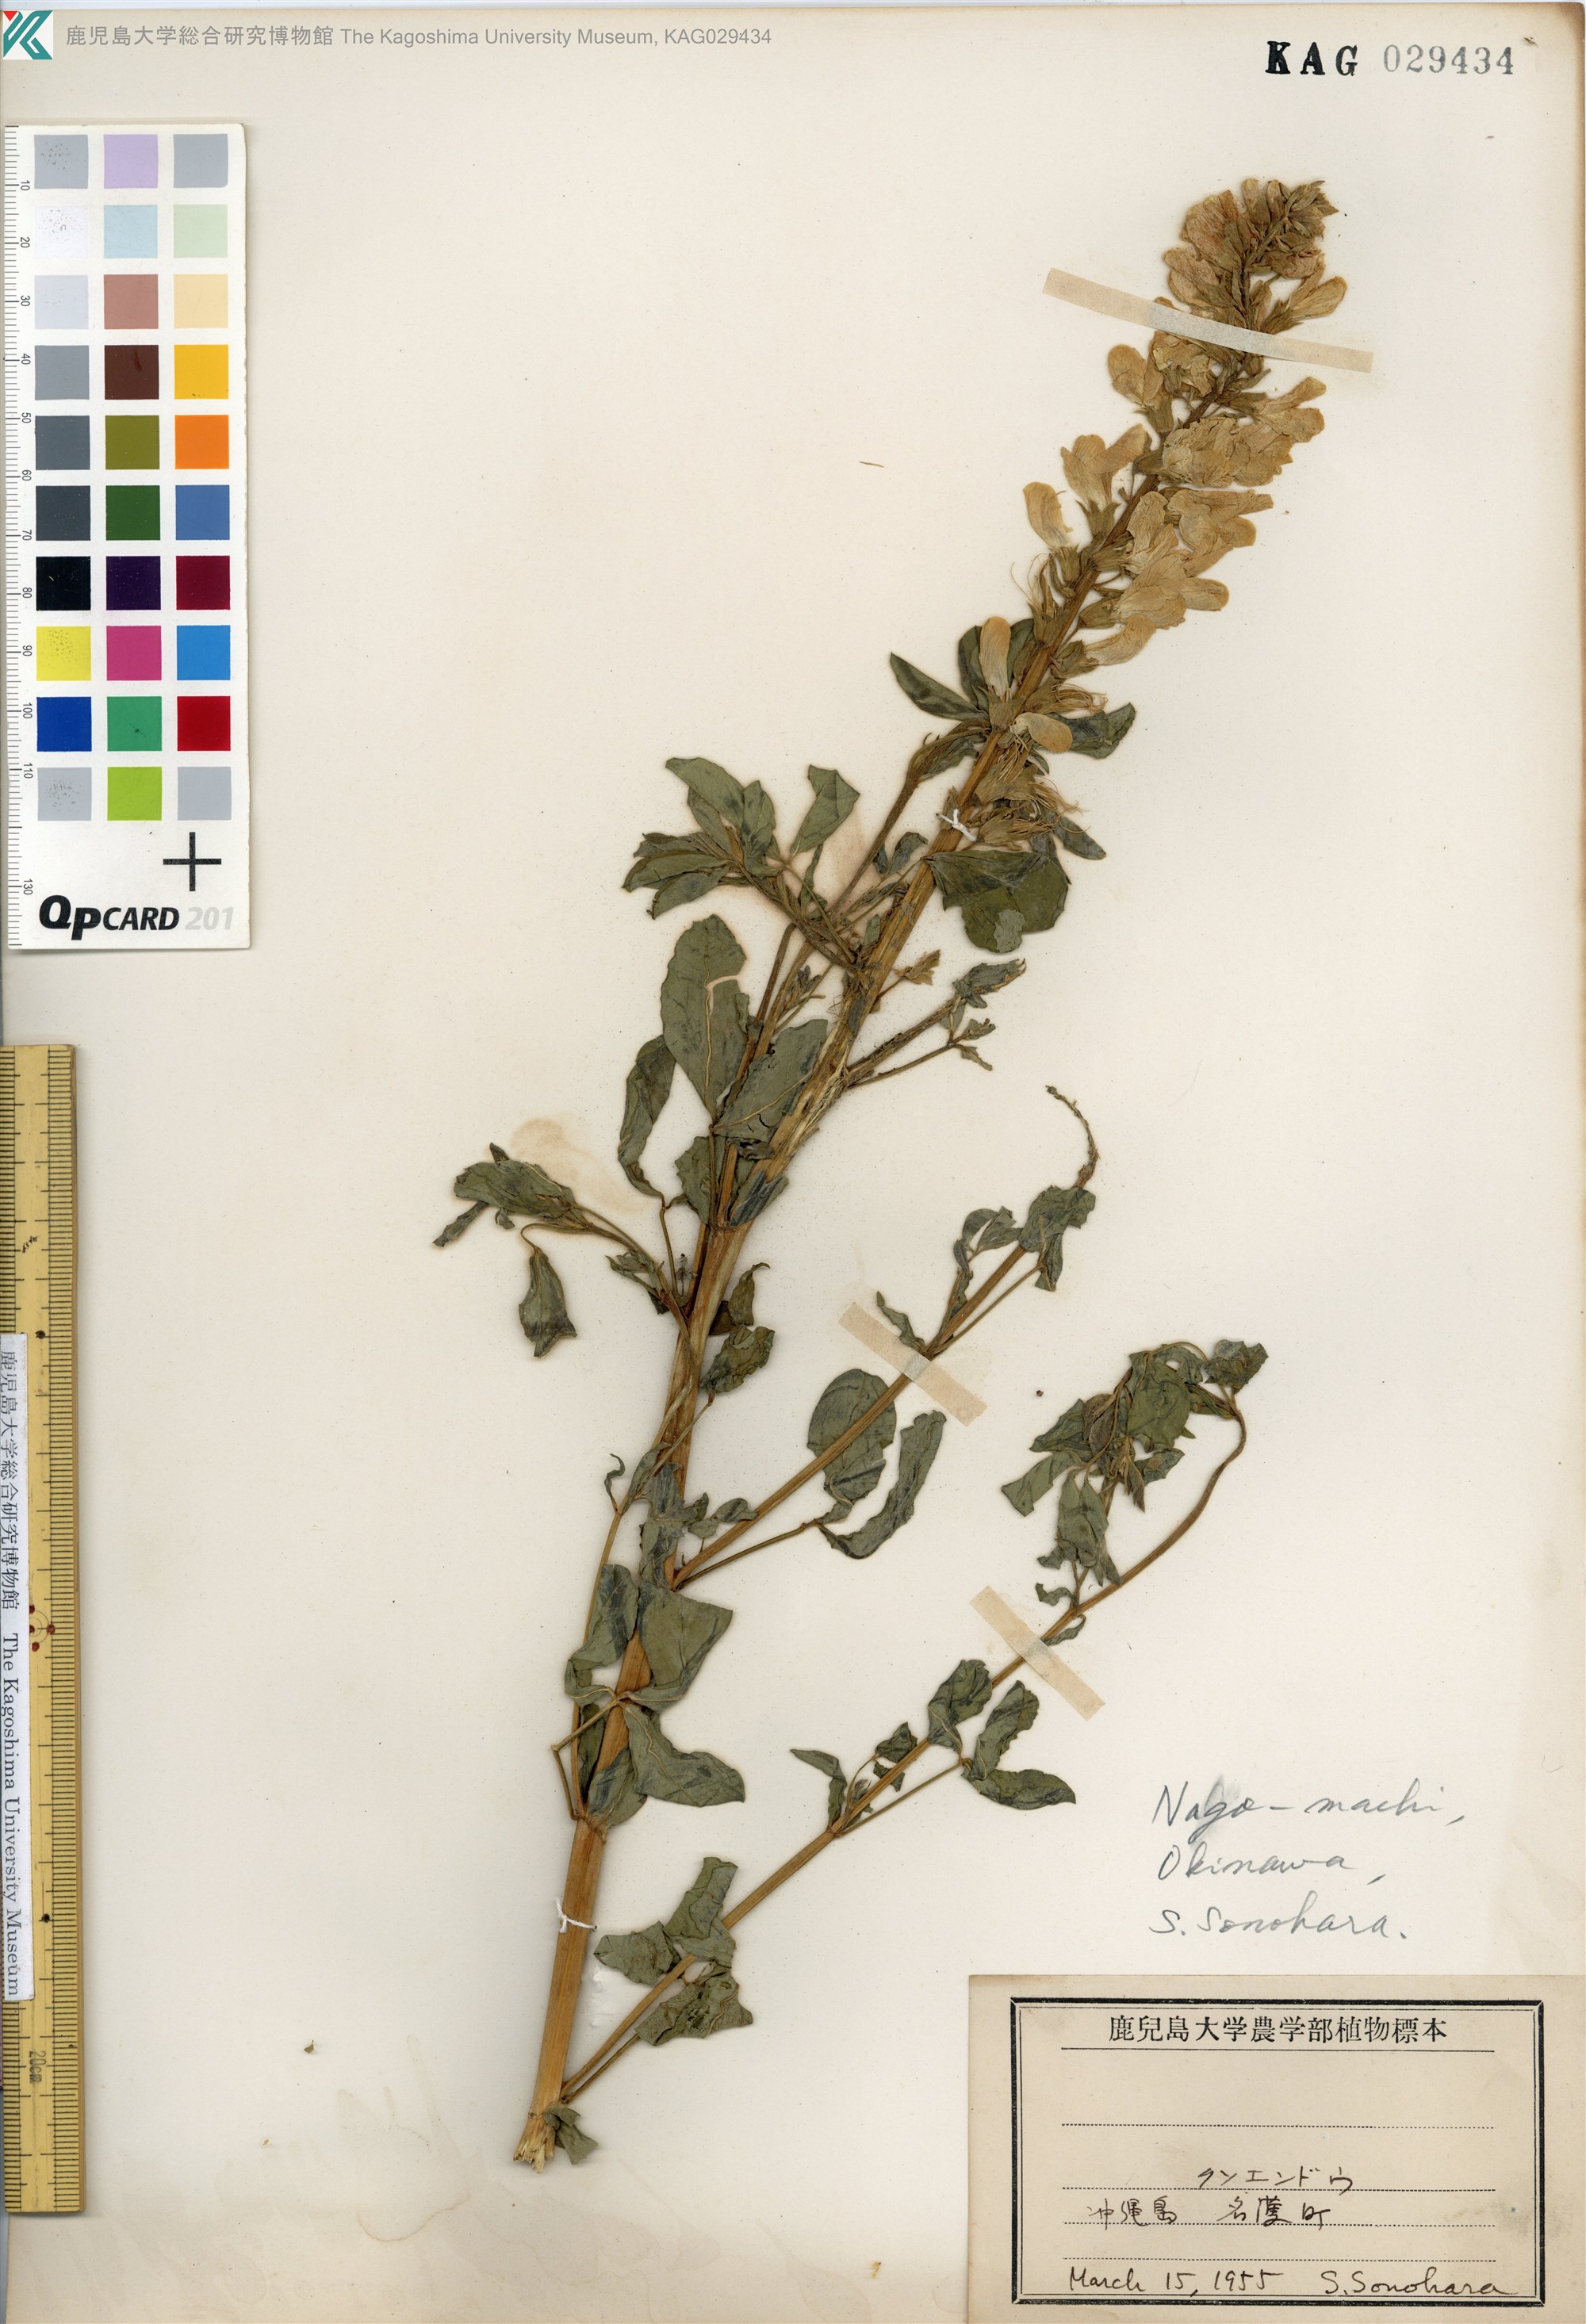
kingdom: Plantae
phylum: Tracheophyta
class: Magnoliopsida
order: Fabales
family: Fabaceae
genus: Thermopsis
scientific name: Thermopsis chinensis
